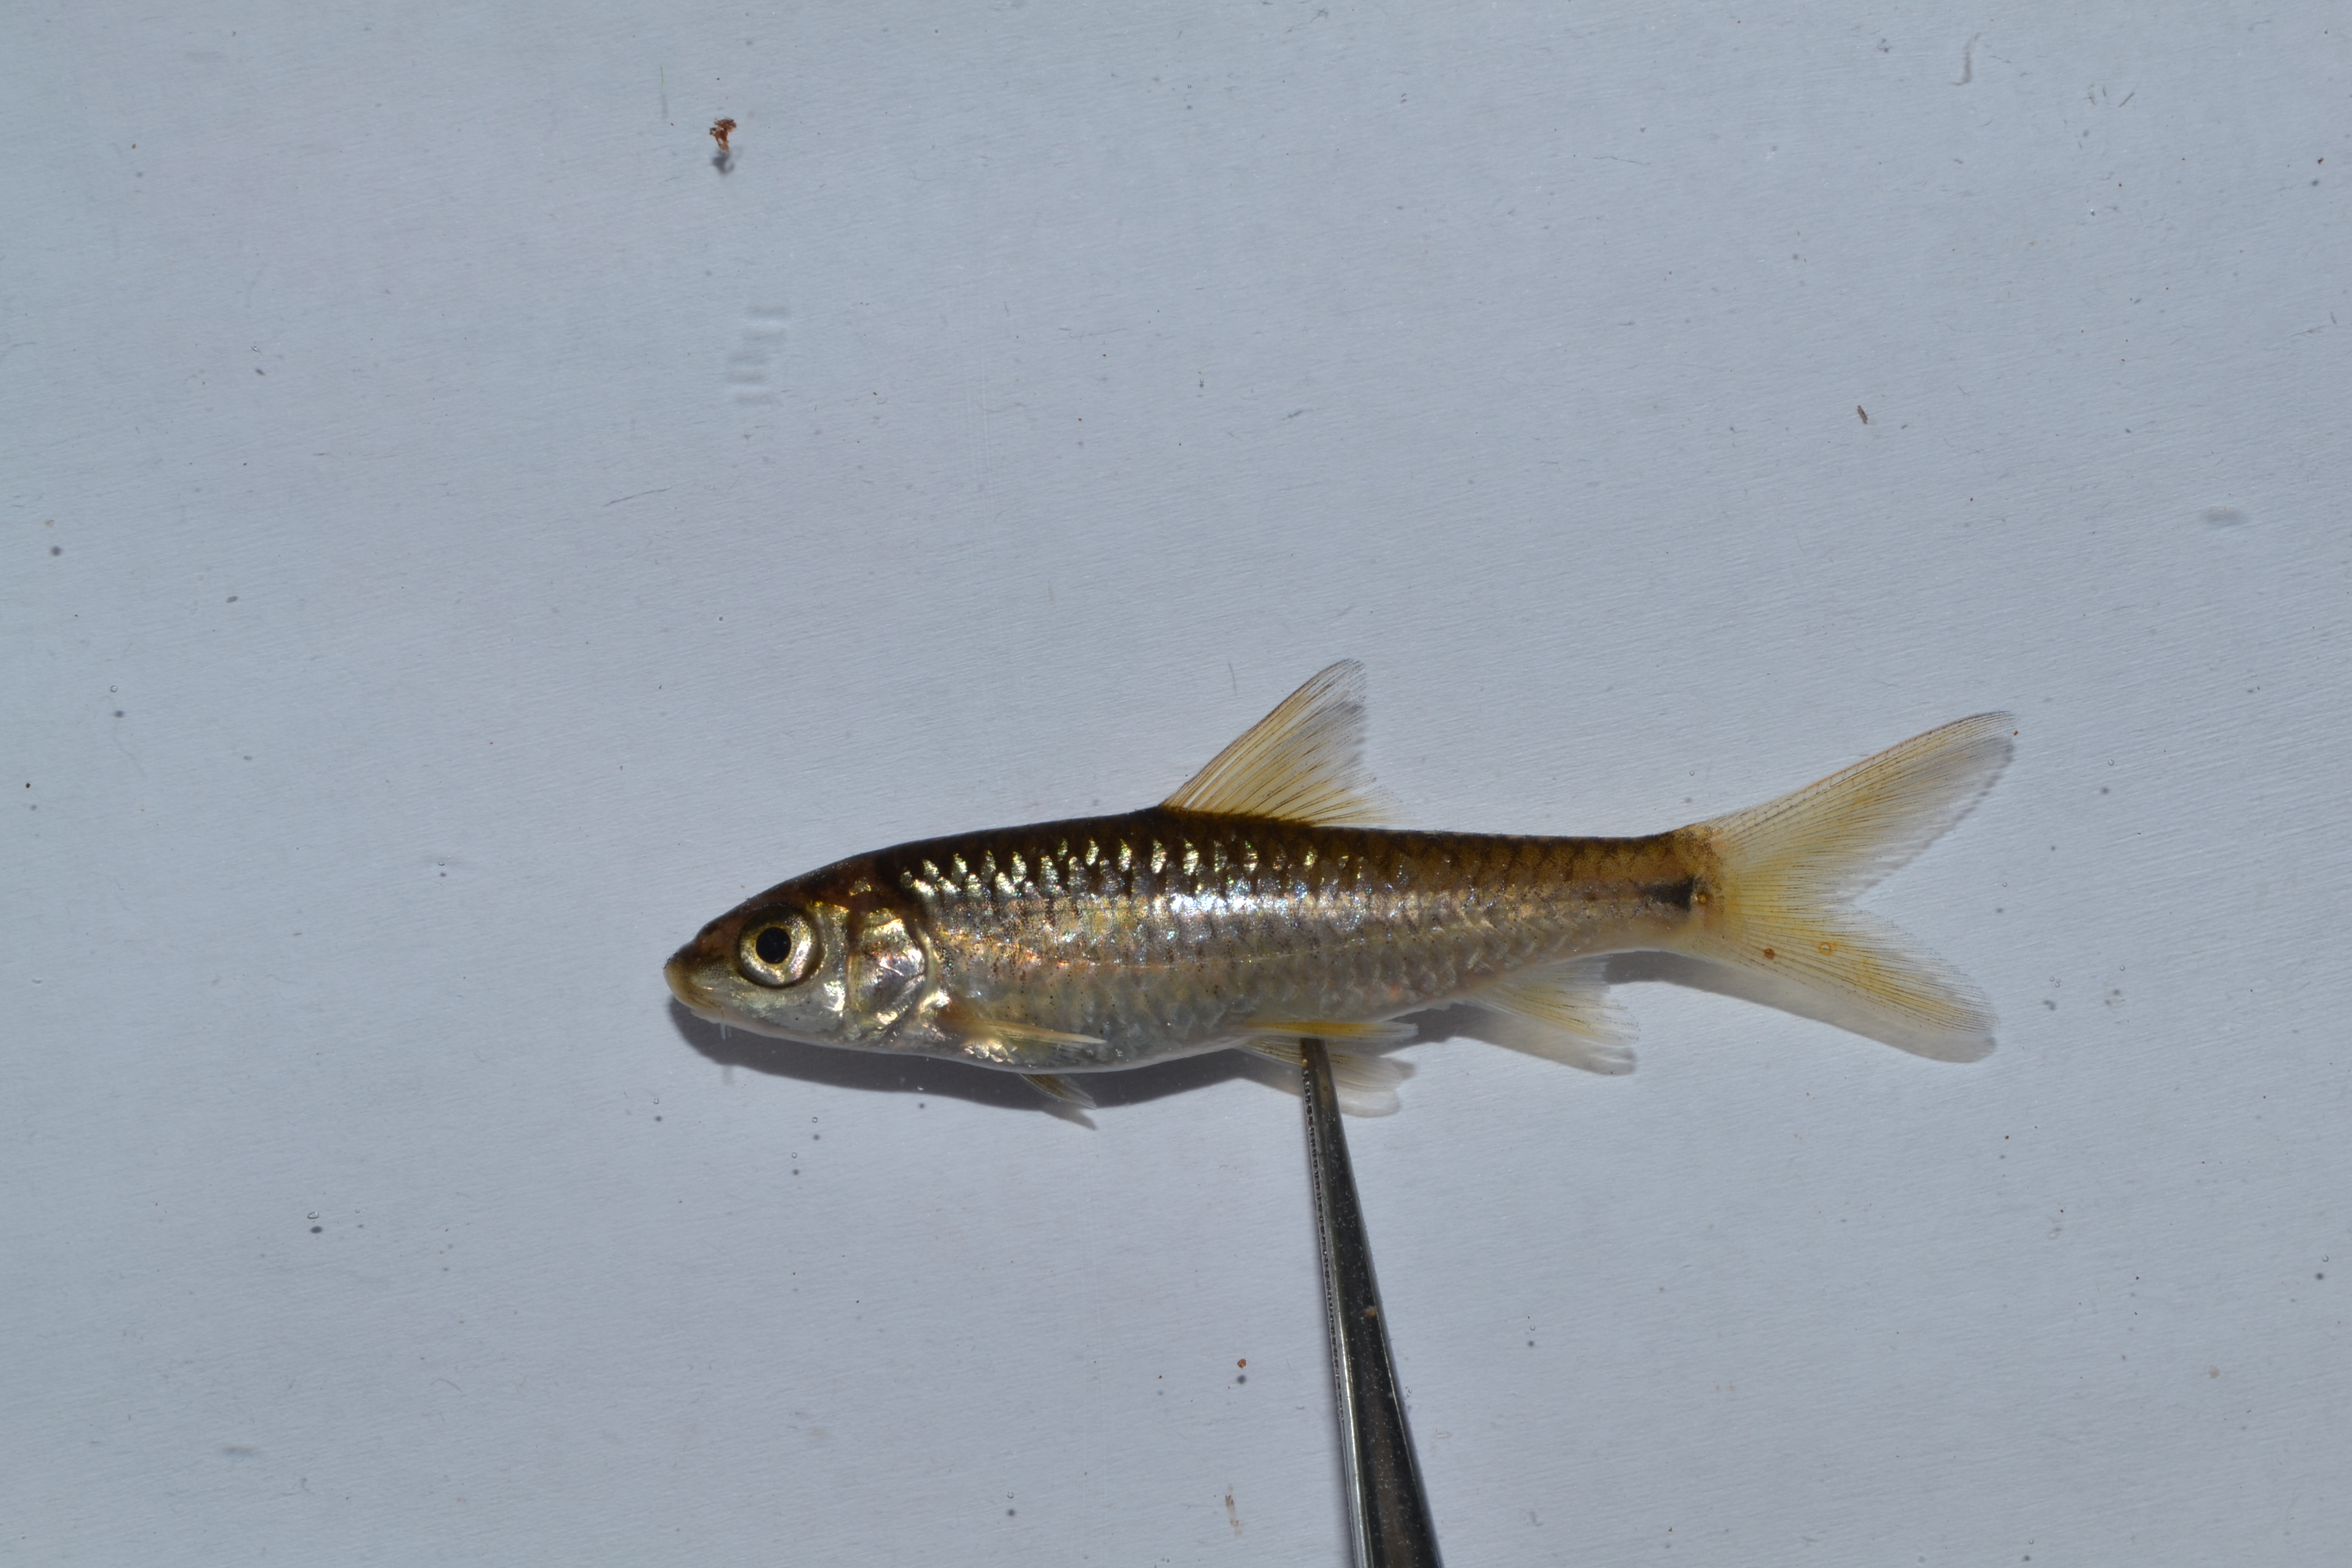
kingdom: Animalia
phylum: Chordata
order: Cypriniformes
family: Cyprinidae
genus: Labeobarbus
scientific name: Labeobarbus pungweensis
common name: Pungwe chiselmouth
